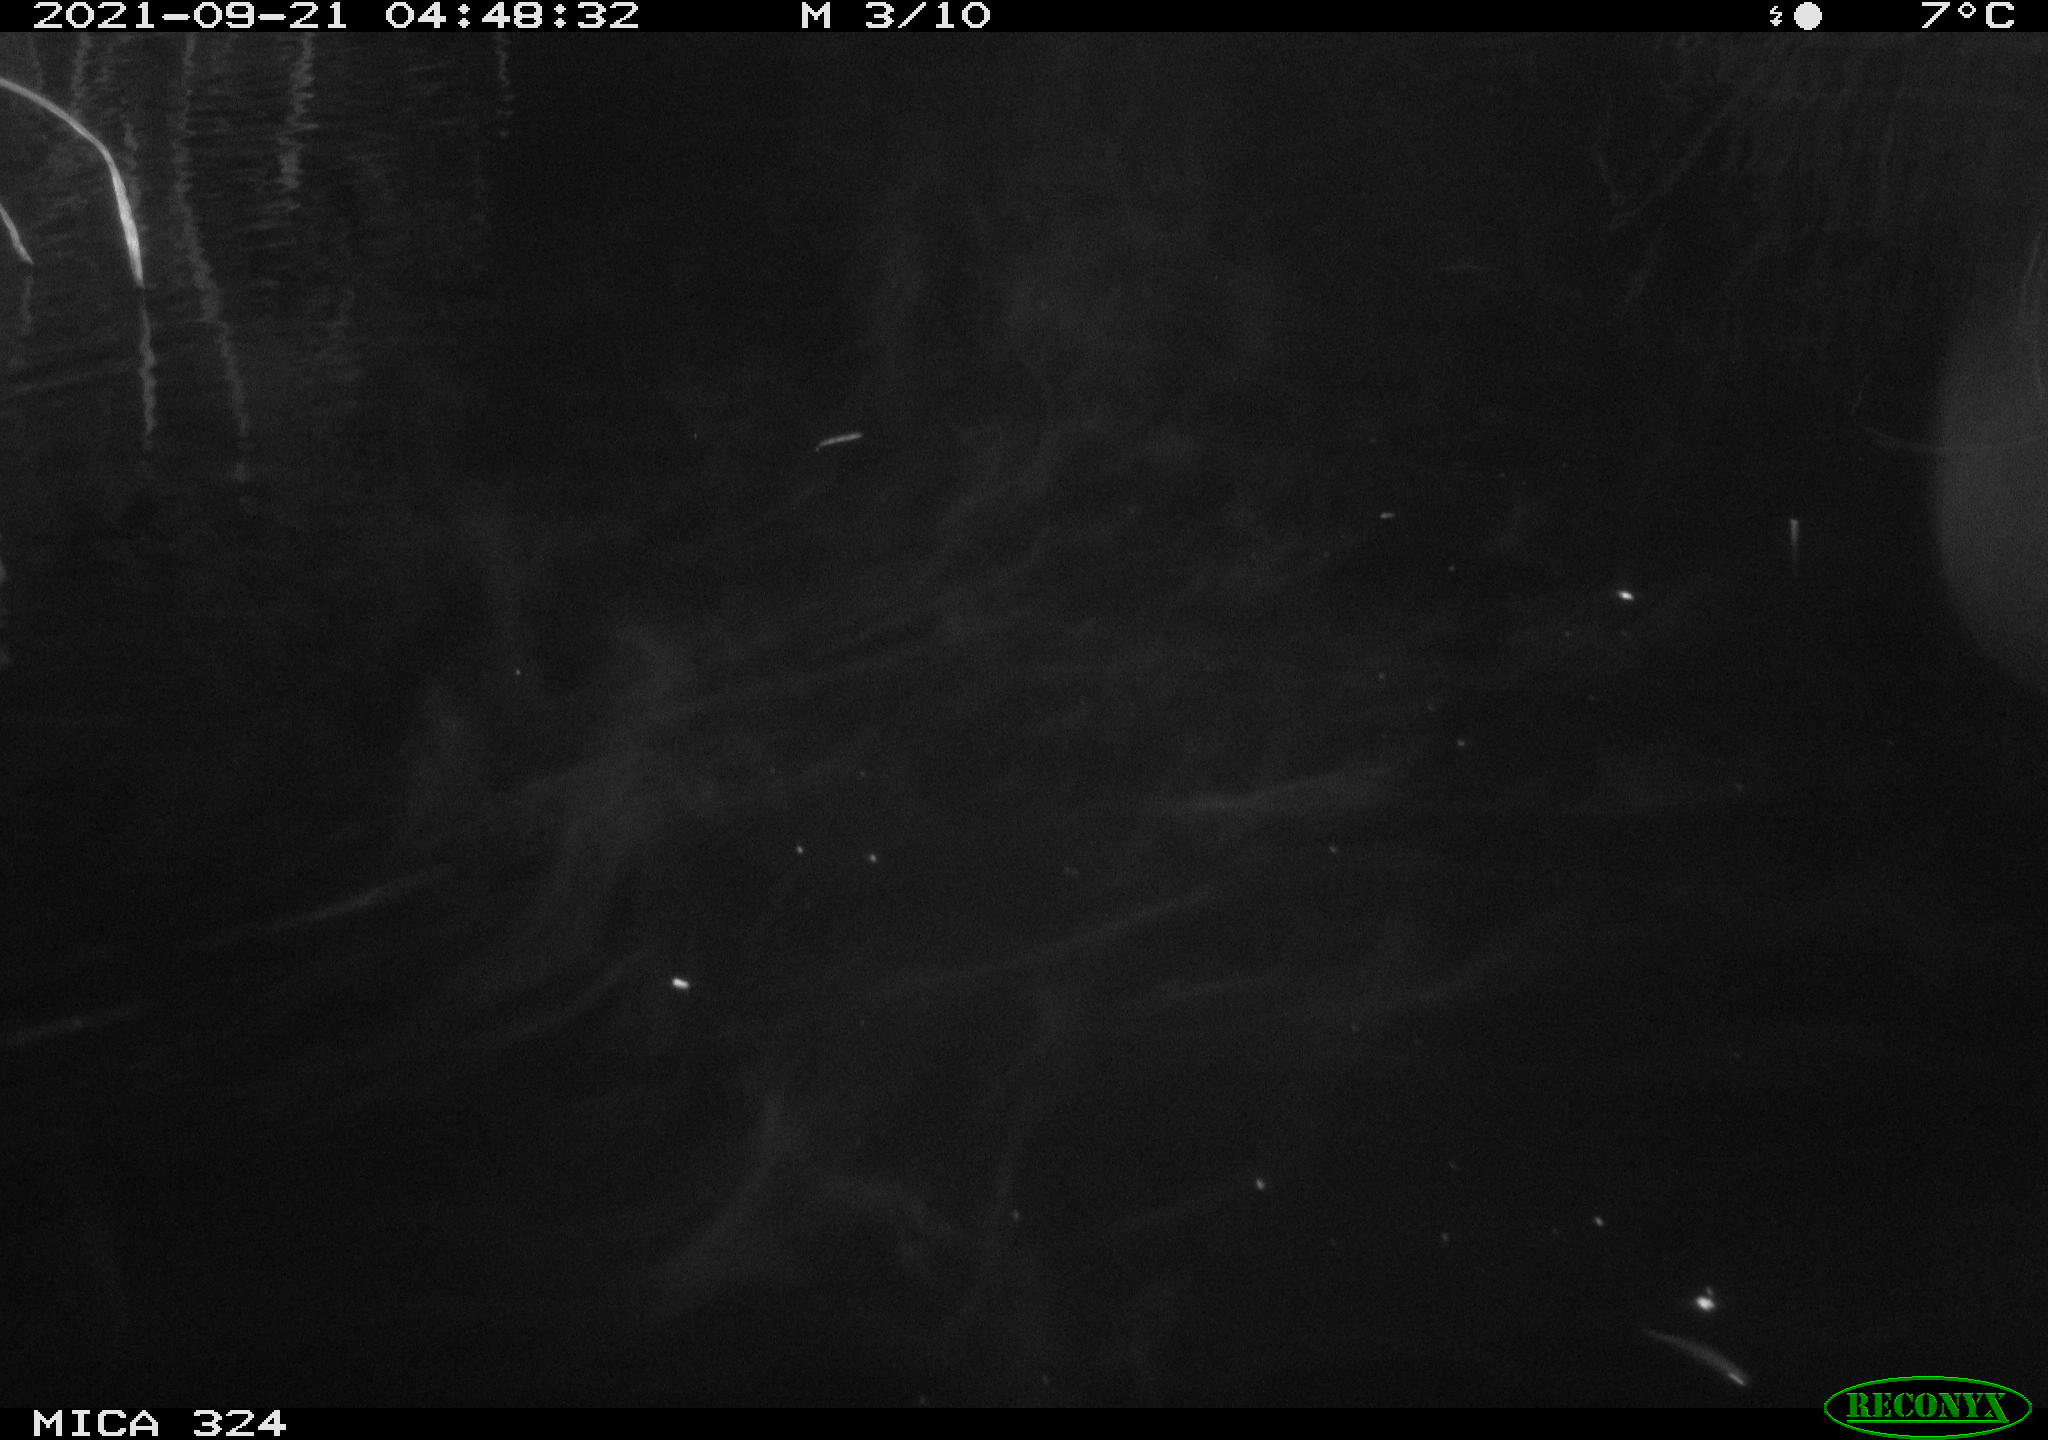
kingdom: Animalia
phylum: Chordata
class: Mammalia
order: Rodentia
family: Cricetidae
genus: Ondatra
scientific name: Ondatra zibethicus
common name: Muskrat
